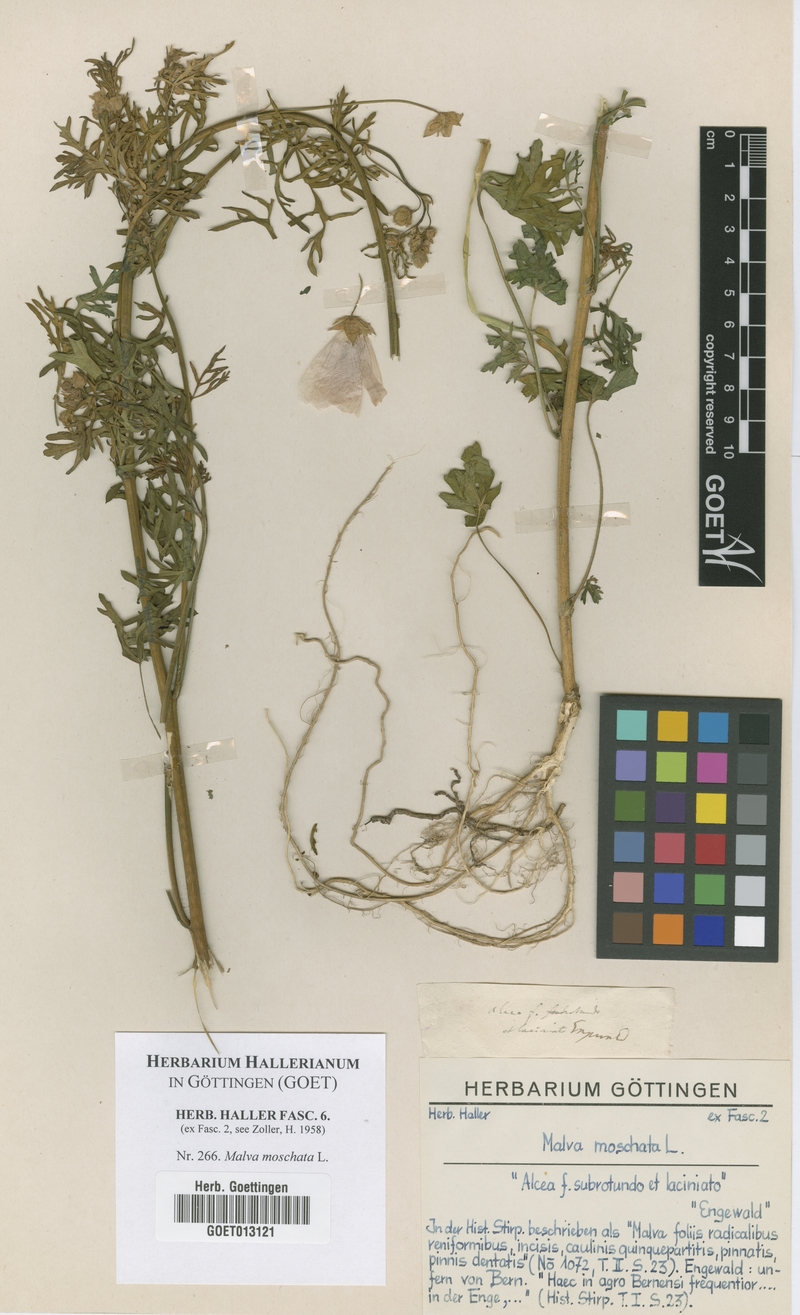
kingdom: Plantae
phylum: Tracheophyta
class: Magnoliopsida
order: Malvales
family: Malvaceae
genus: Malva
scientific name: Malva moschata
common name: Musk mallow
